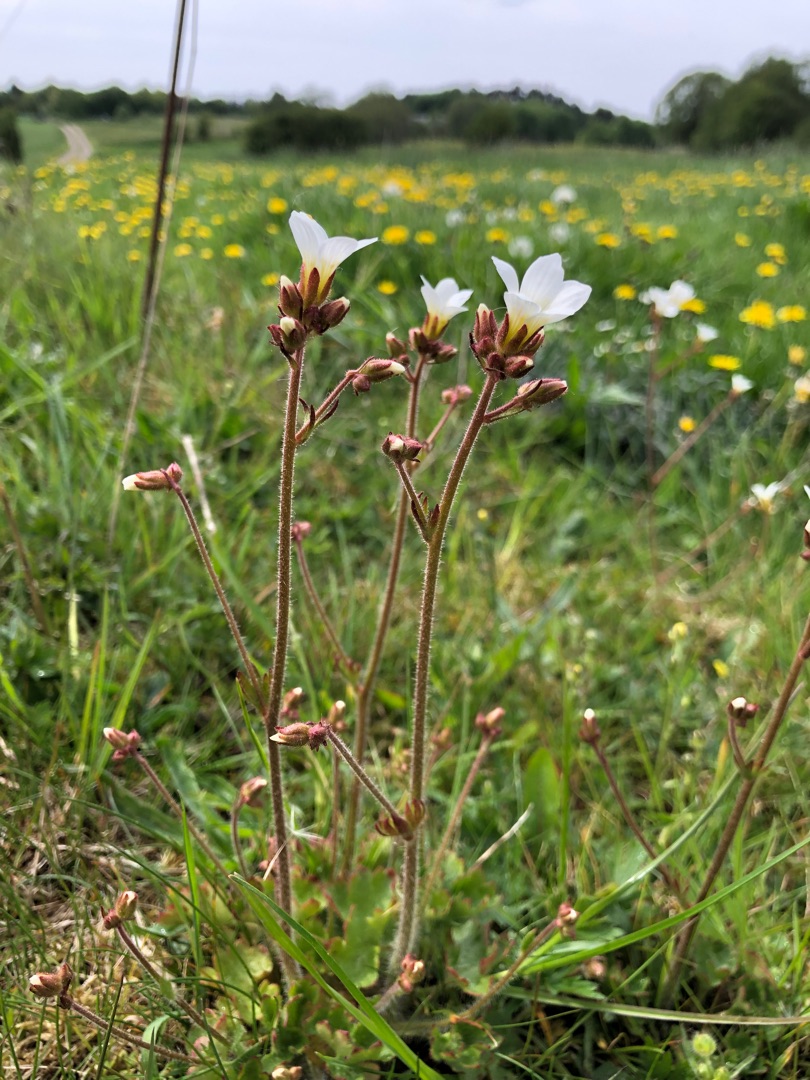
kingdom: Plantae
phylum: Tracheophyta
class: Magnoliopsida
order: Saxifragales
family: Saxifragaceae
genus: Saxifraga
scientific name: Saxifraga granulata
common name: Kornet stenbræk
